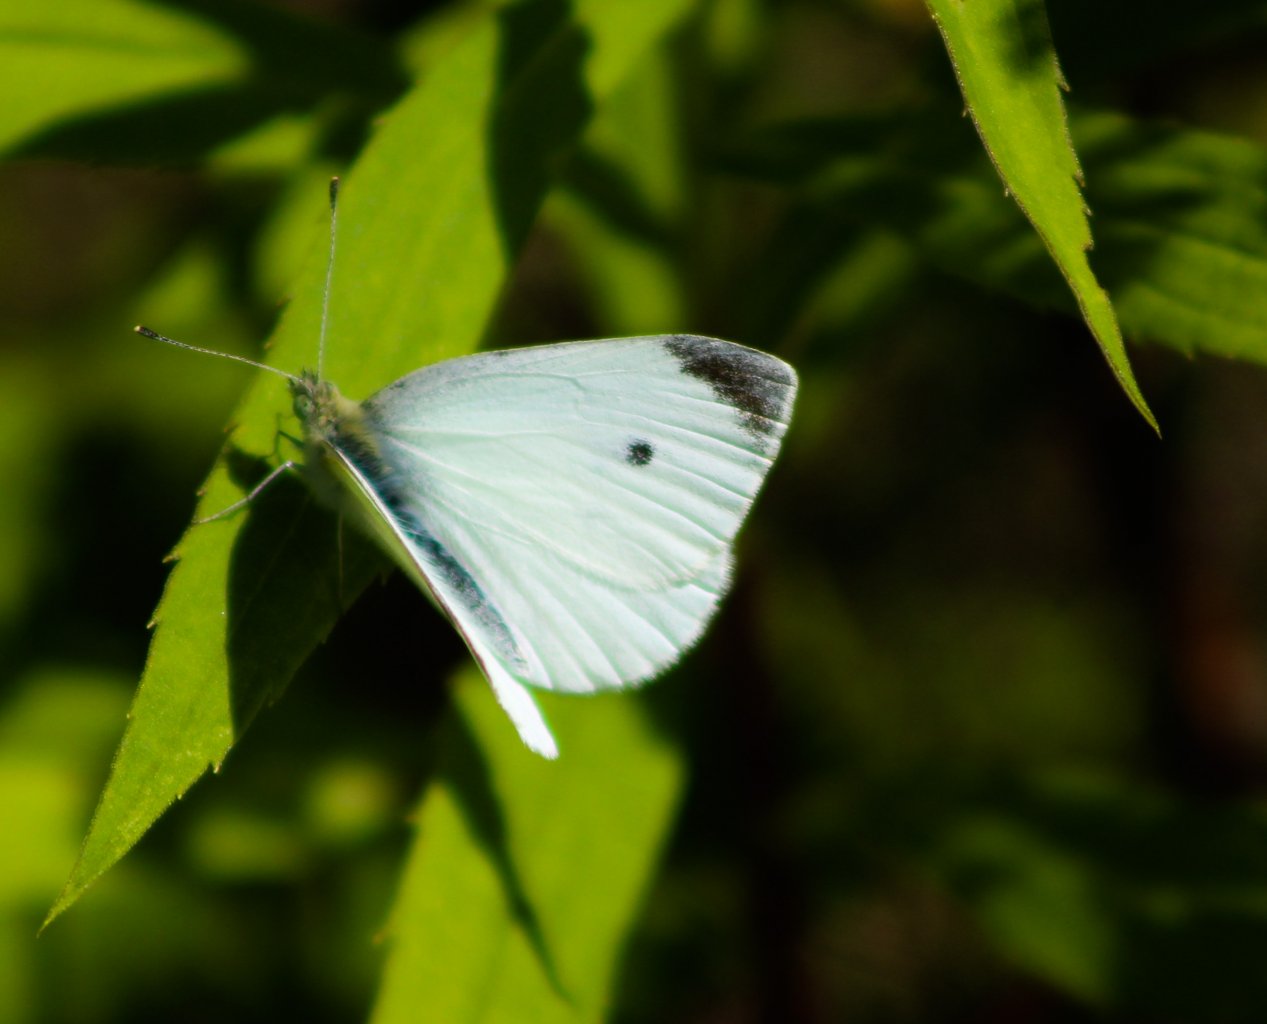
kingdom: Animalia
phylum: Arthropoda
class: Insecta
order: Lepidoptera
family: Pieridae
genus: Pieris
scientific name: Pieris rapae
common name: Cabbage White
